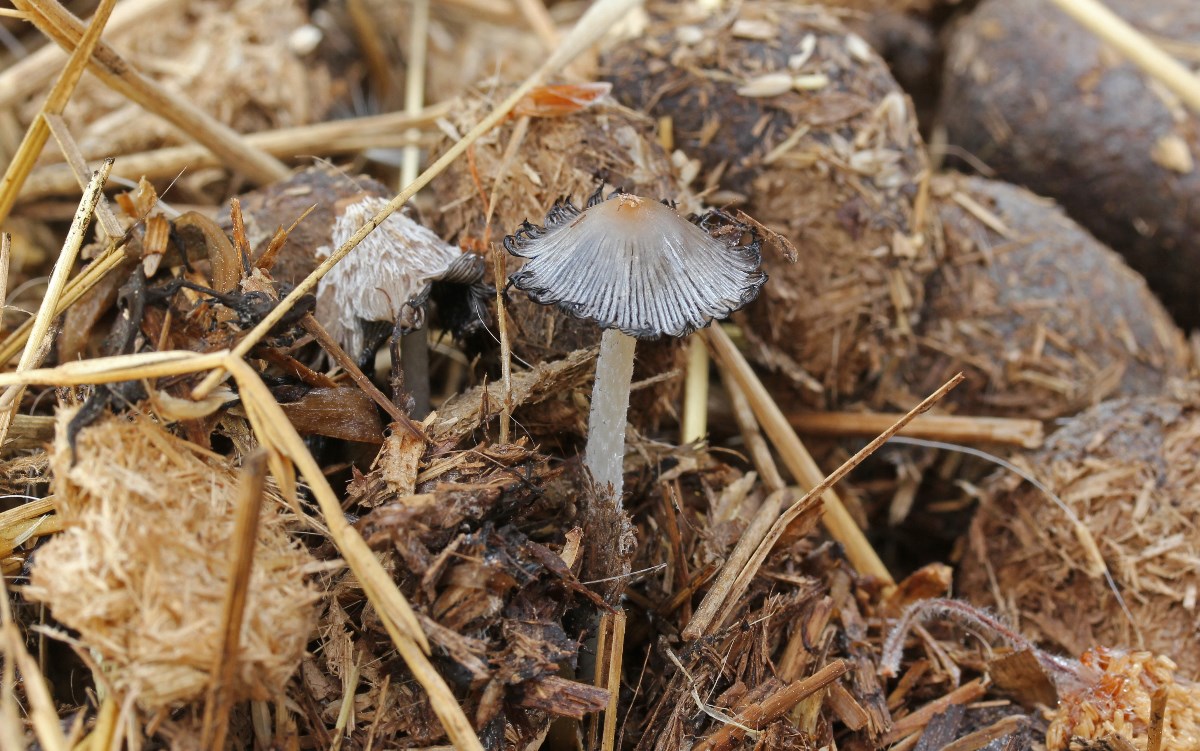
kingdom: Fungi
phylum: Basidiomycota
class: Agaricomycetes
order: Agaricales
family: Psathyrellaceae
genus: Coprinopsis
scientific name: Coprinopsis
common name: blækhat
